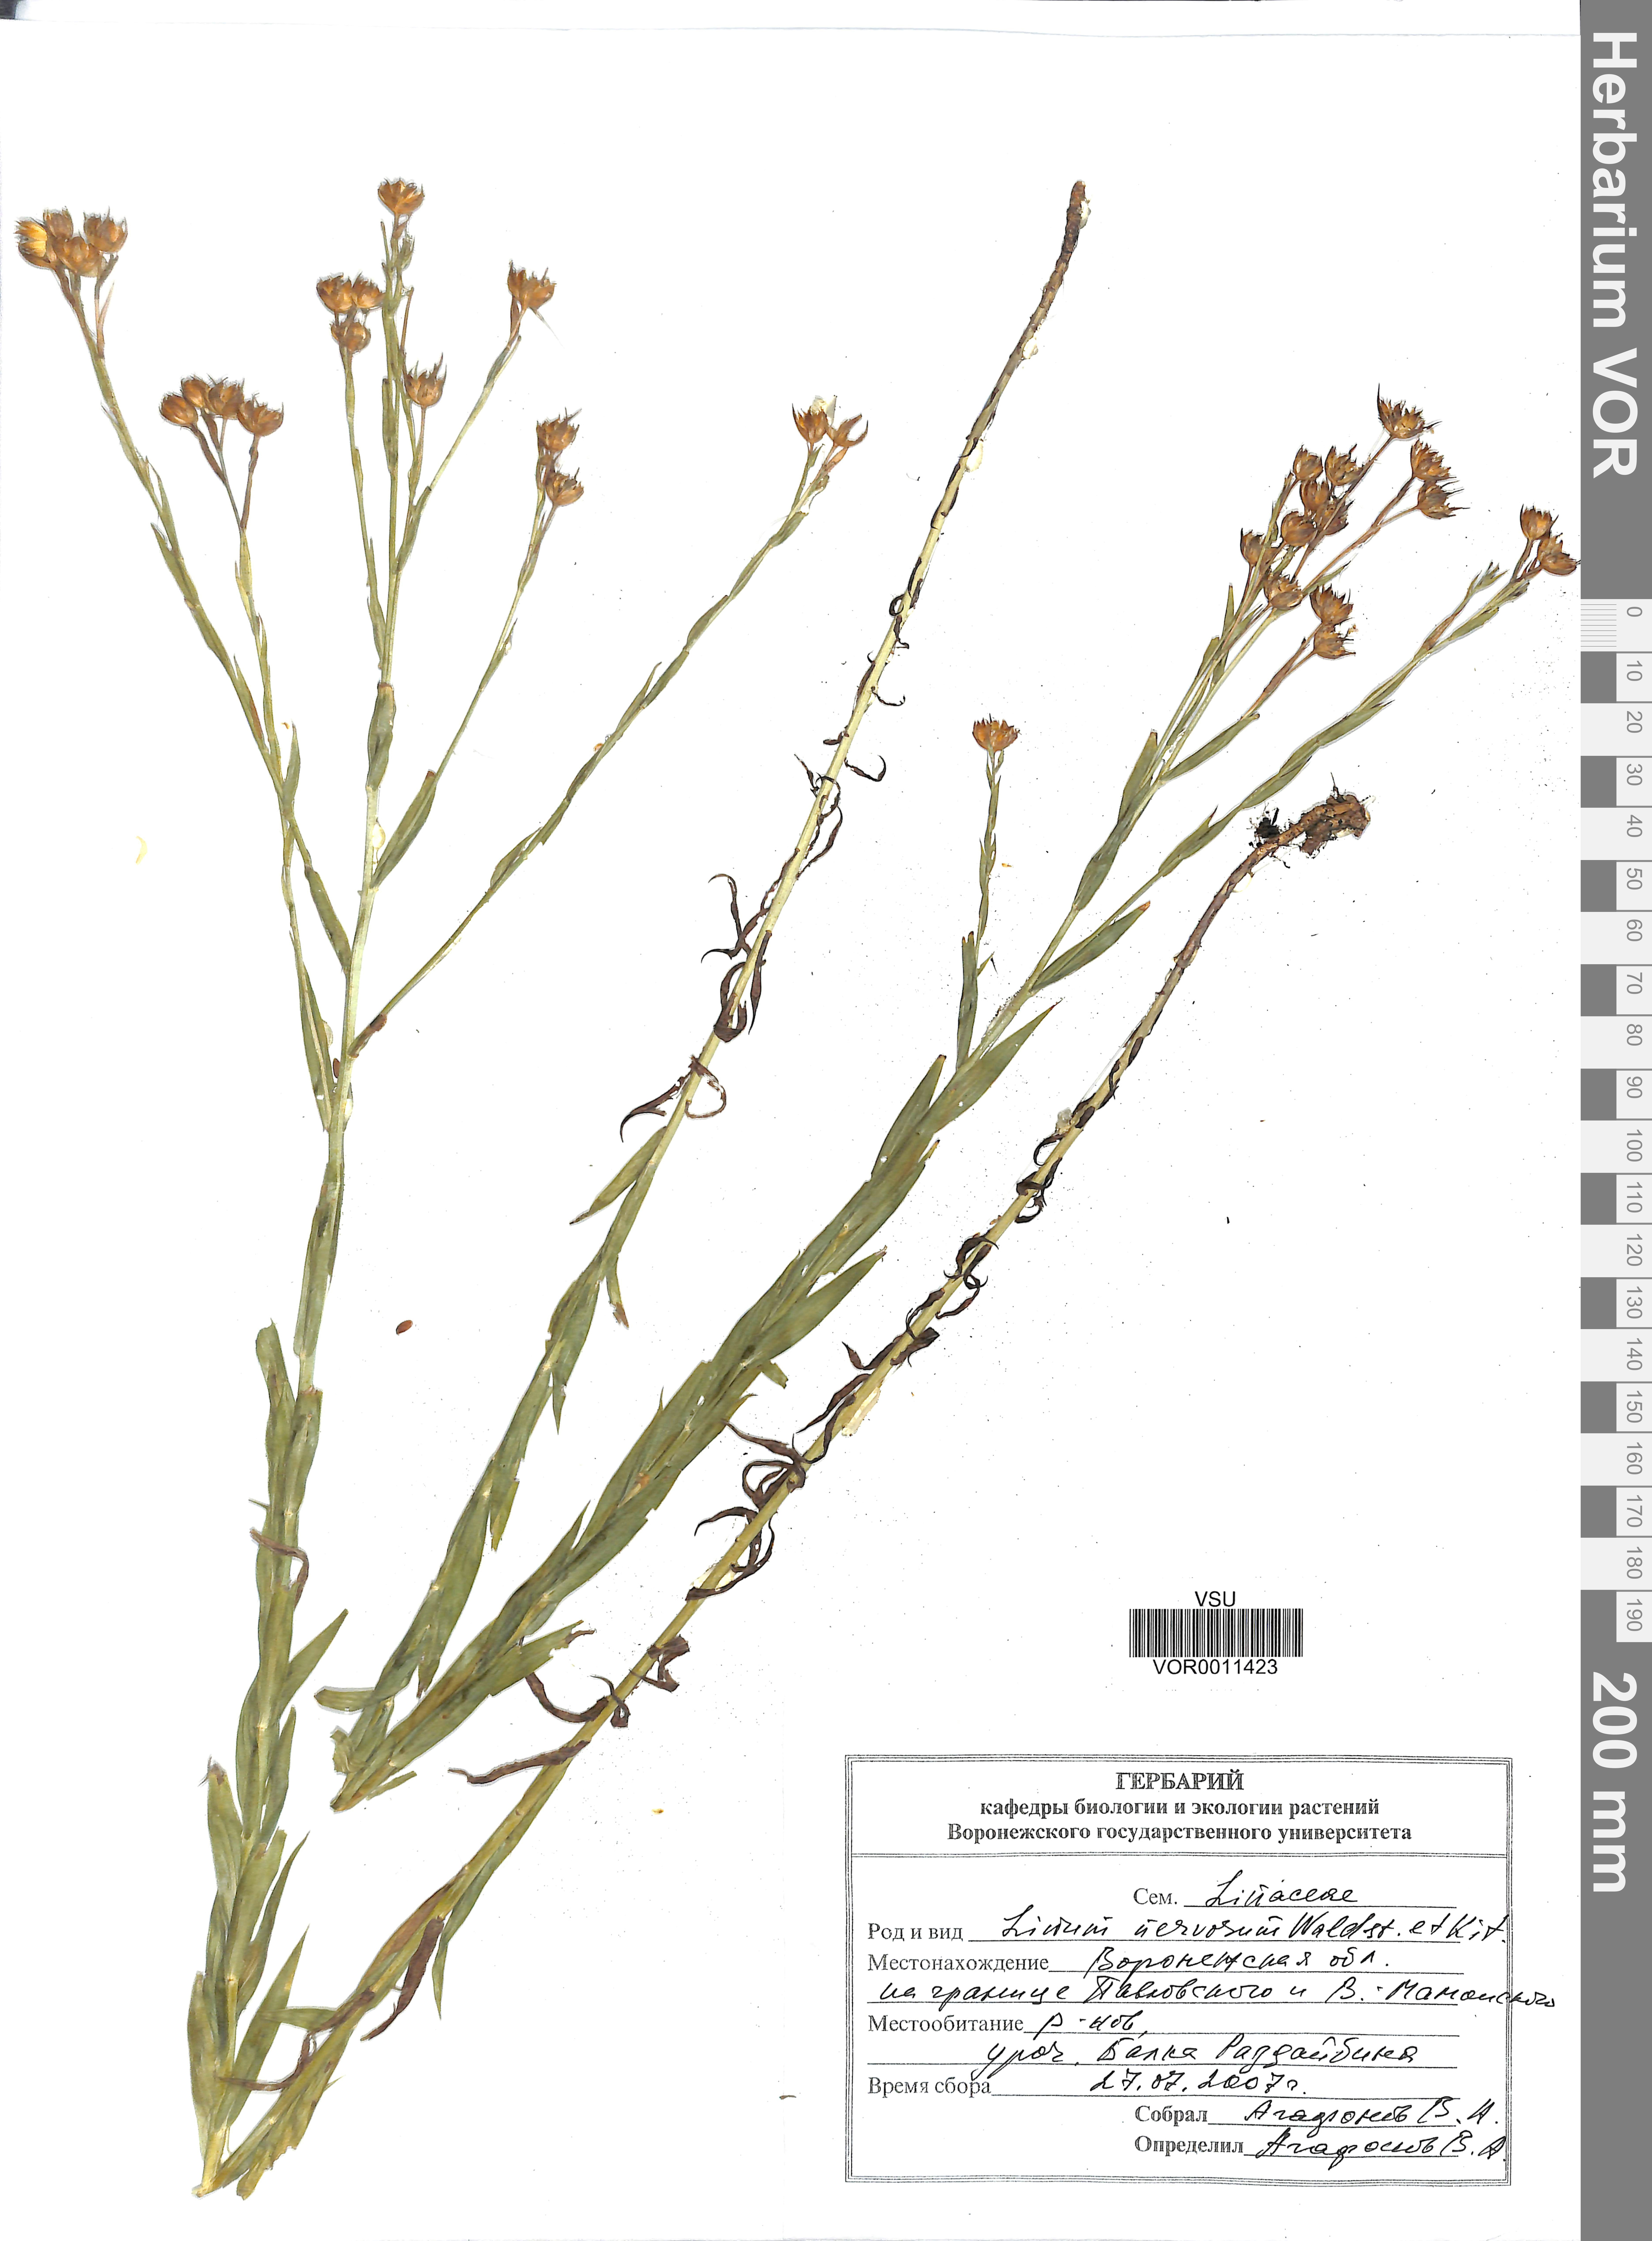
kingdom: Plantae
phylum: Tracheophyta
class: Magnoliopsida
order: Malpighiales
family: Linaceae
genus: Linum
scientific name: Linum nervosum
